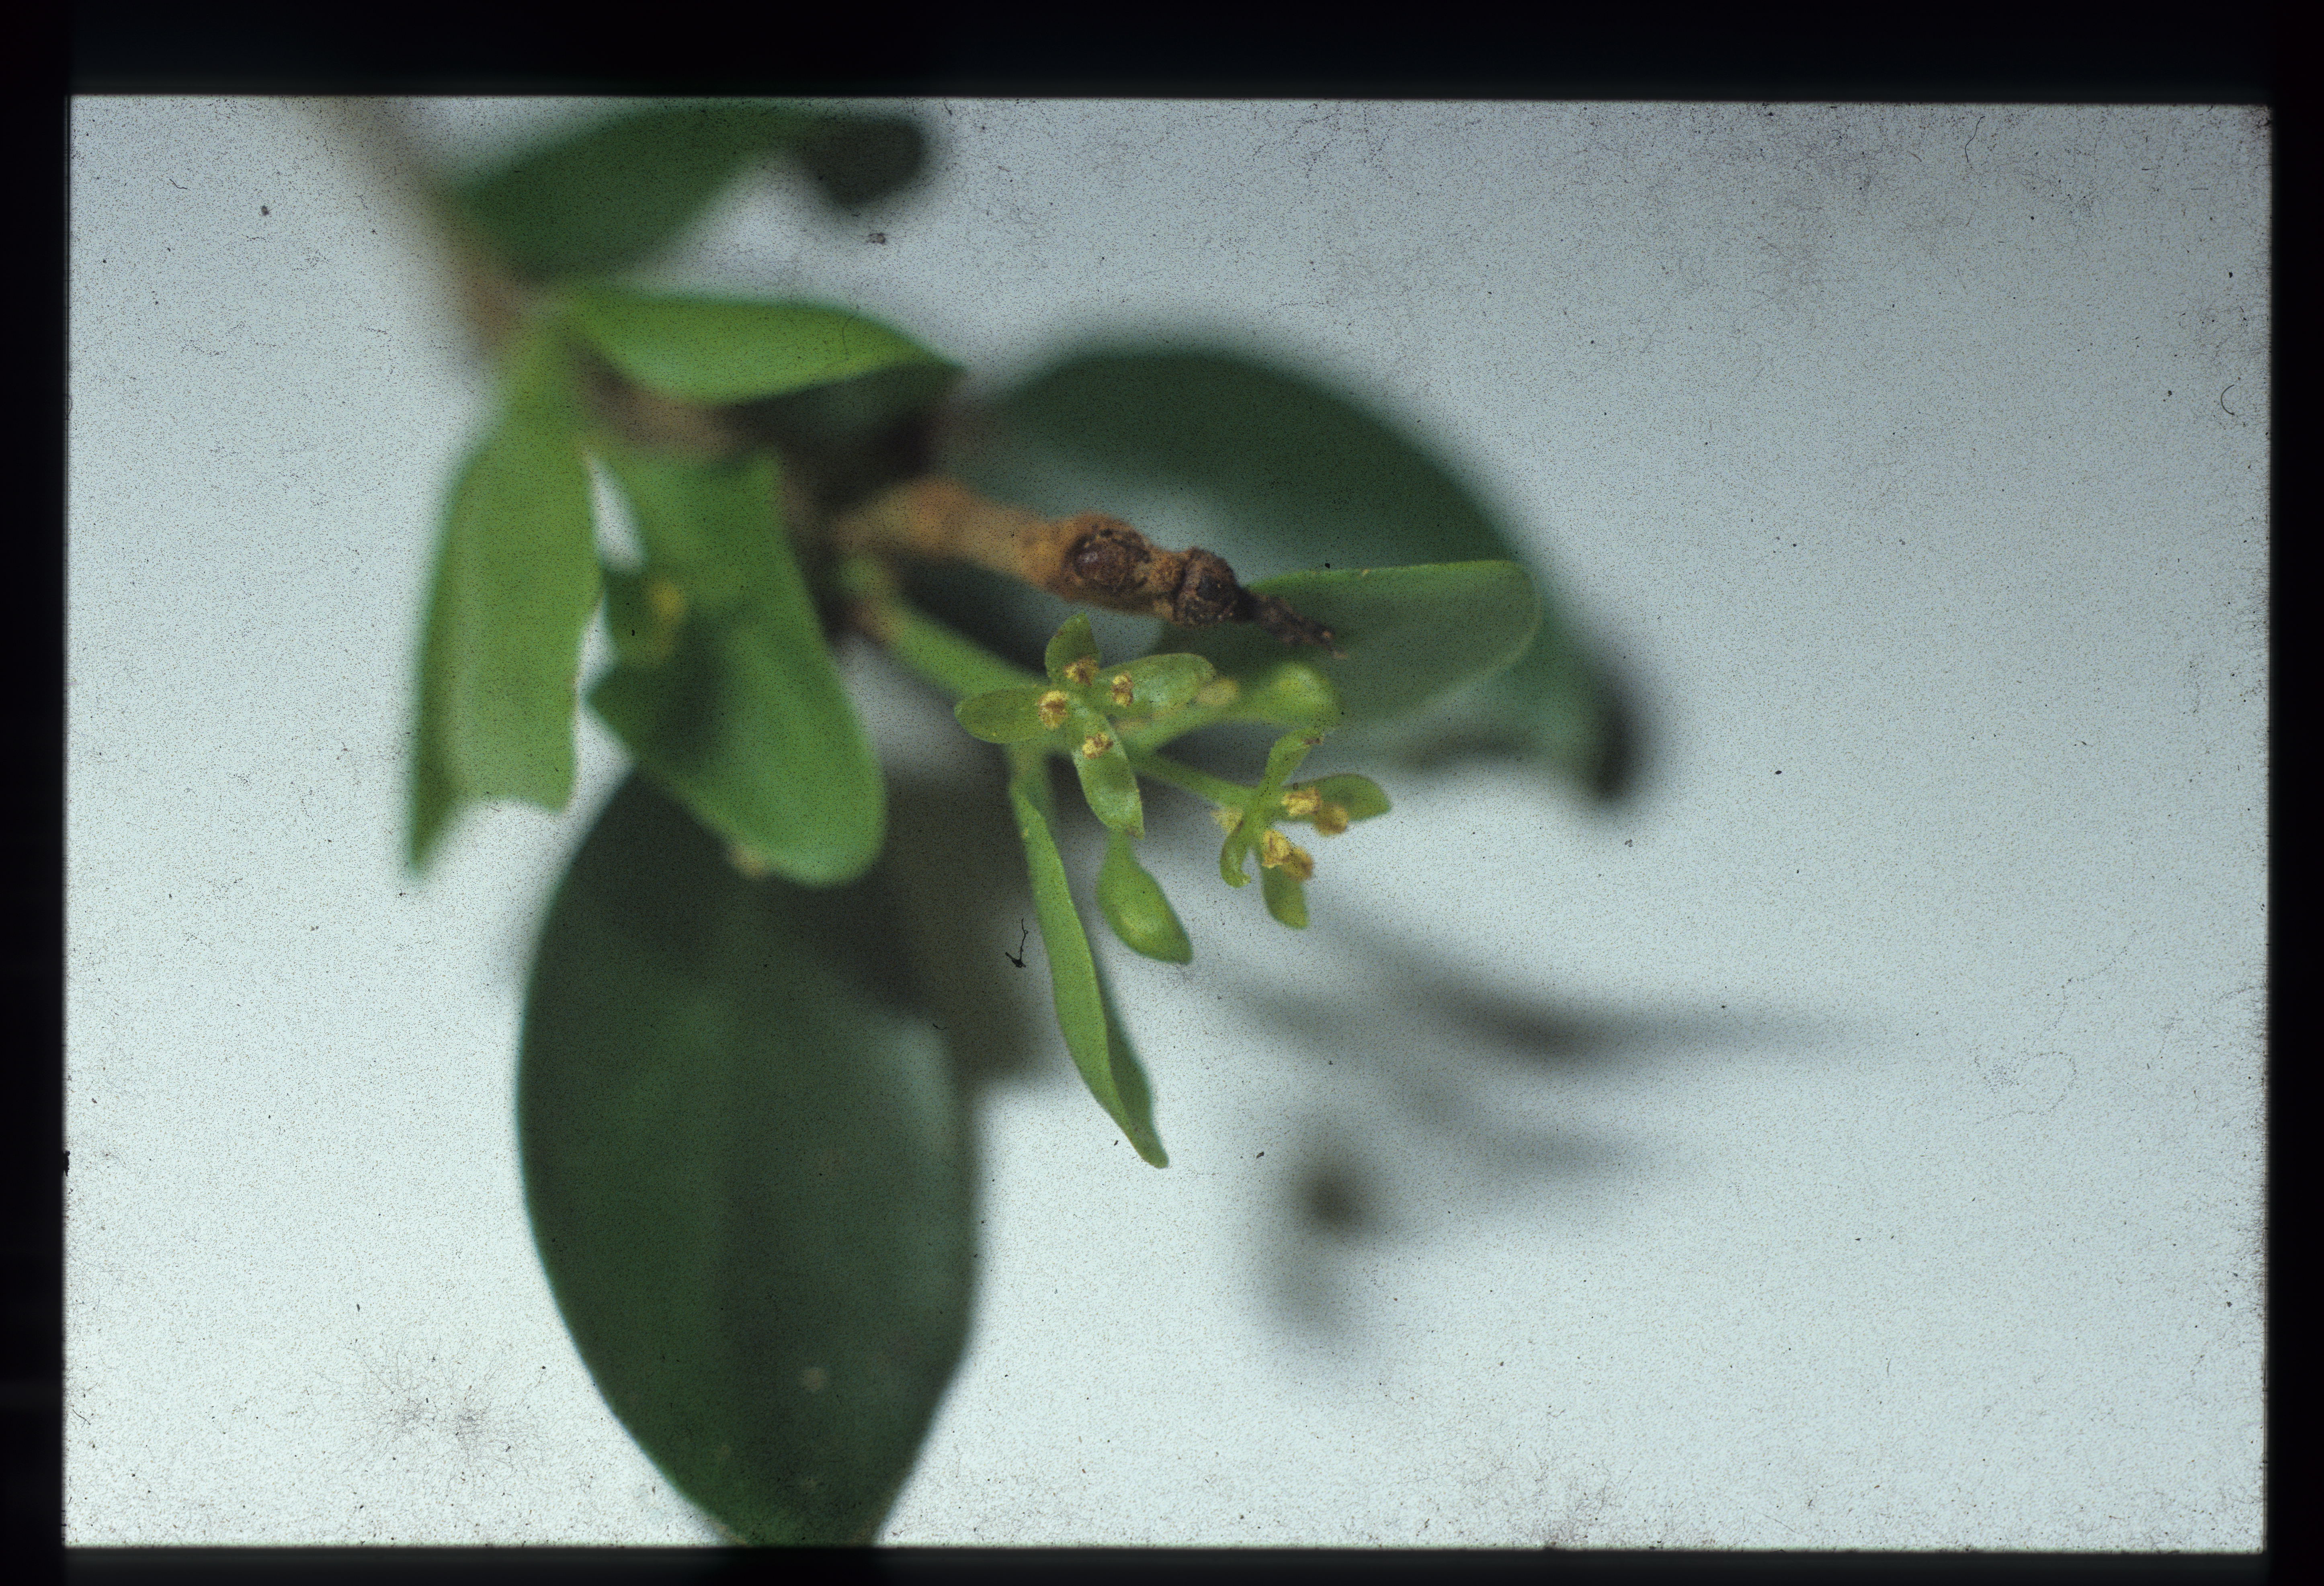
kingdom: Plantae
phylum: Tracheophyta
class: Magnoliopsida
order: Santalales
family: Loranthaceae
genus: Tupeia
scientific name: Tupeia antarctica
